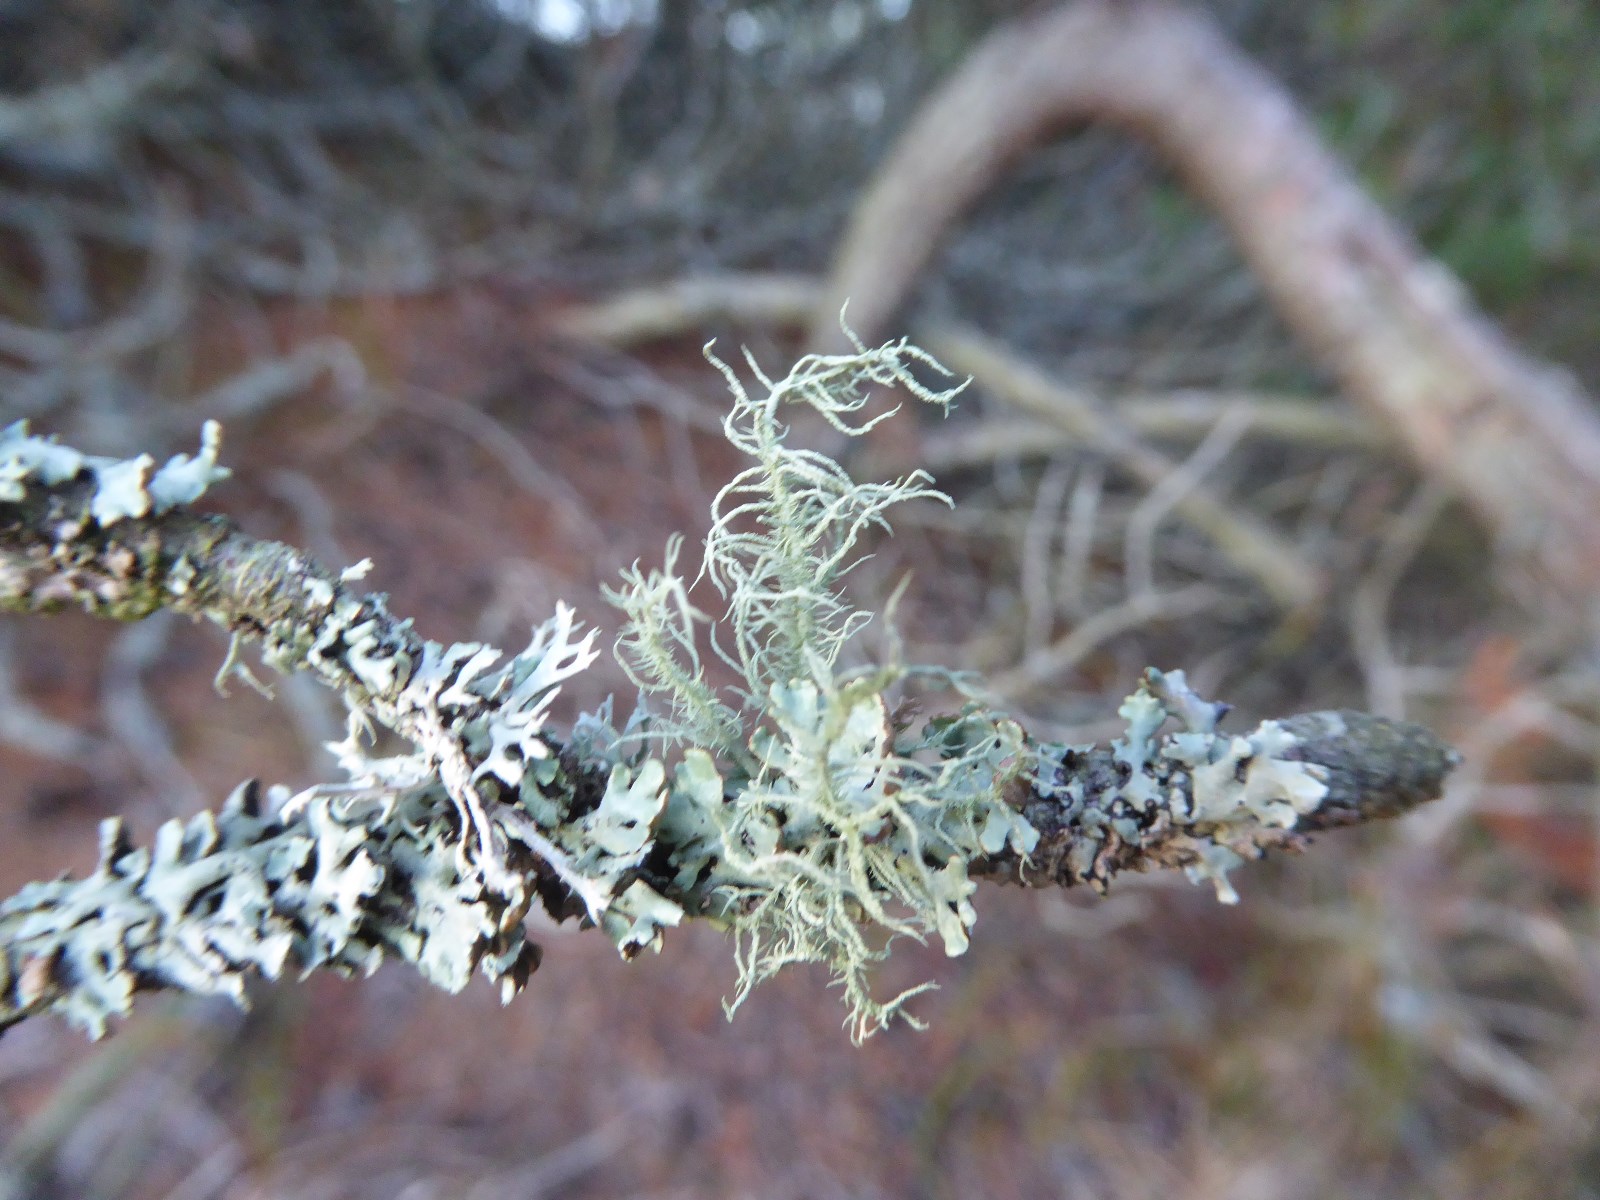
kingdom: Fungi
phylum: Ascomycota
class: Lecanoromycetes
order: Lecanorales
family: Parmeliaceae
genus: Usnea
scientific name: Usnea hirta
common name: liden skæglav
